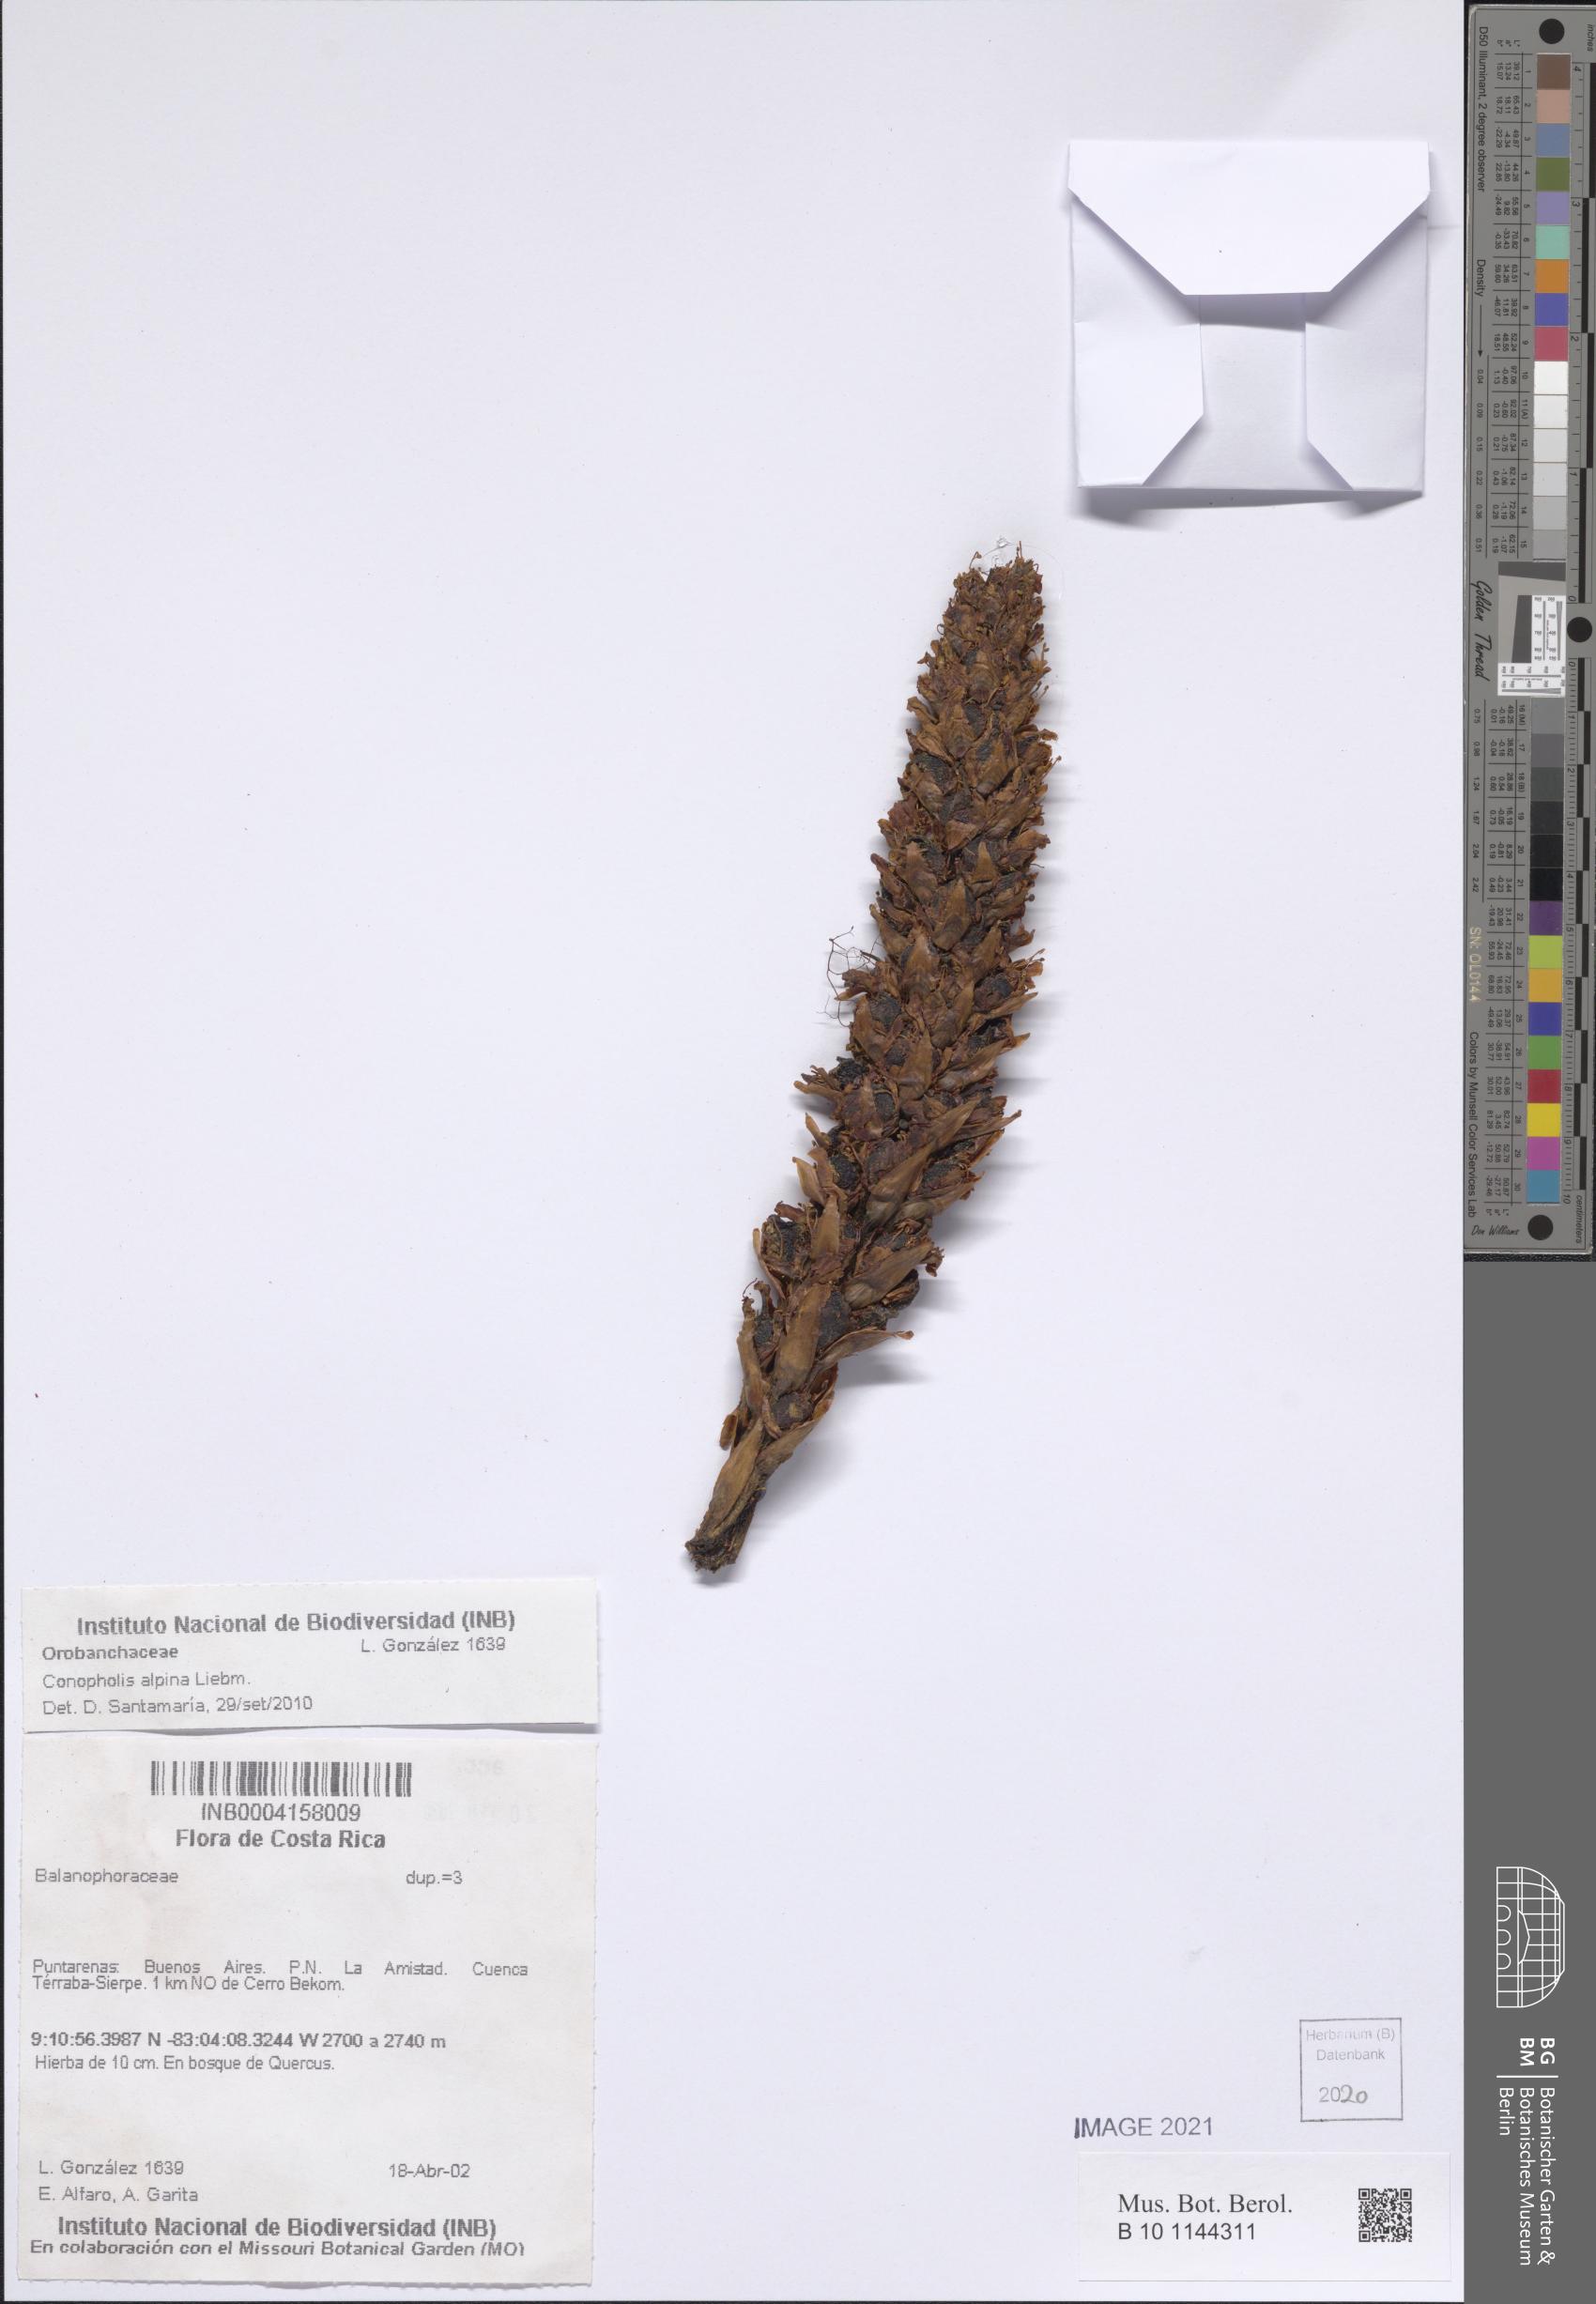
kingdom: Plantae
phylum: Tracheophyta
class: Magnoliopsida
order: Lamiales
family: Orobanchaceae
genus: Conopholis
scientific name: Conopholis alpina
